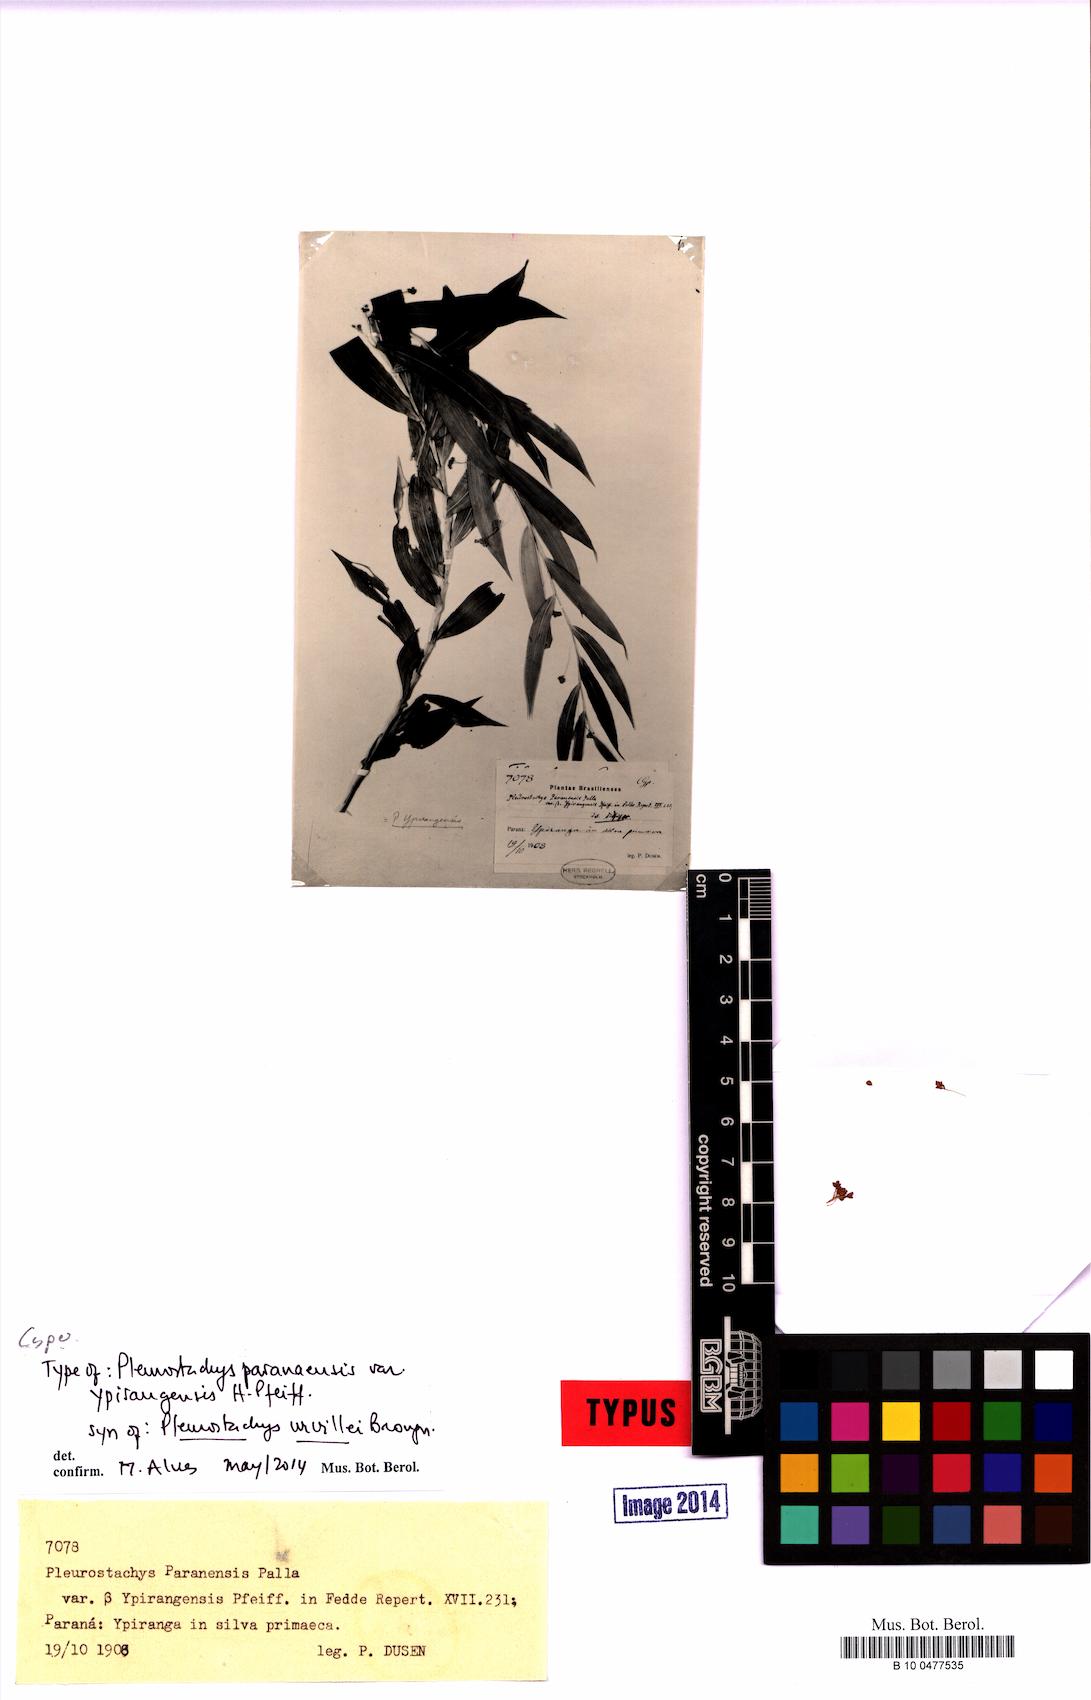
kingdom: Plantae
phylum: Tracheophyta
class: Liliopsida
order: Poales
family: Cyperaceae
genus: Rhynchospora
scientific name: Rhynchospora Pleurostachys ulei
